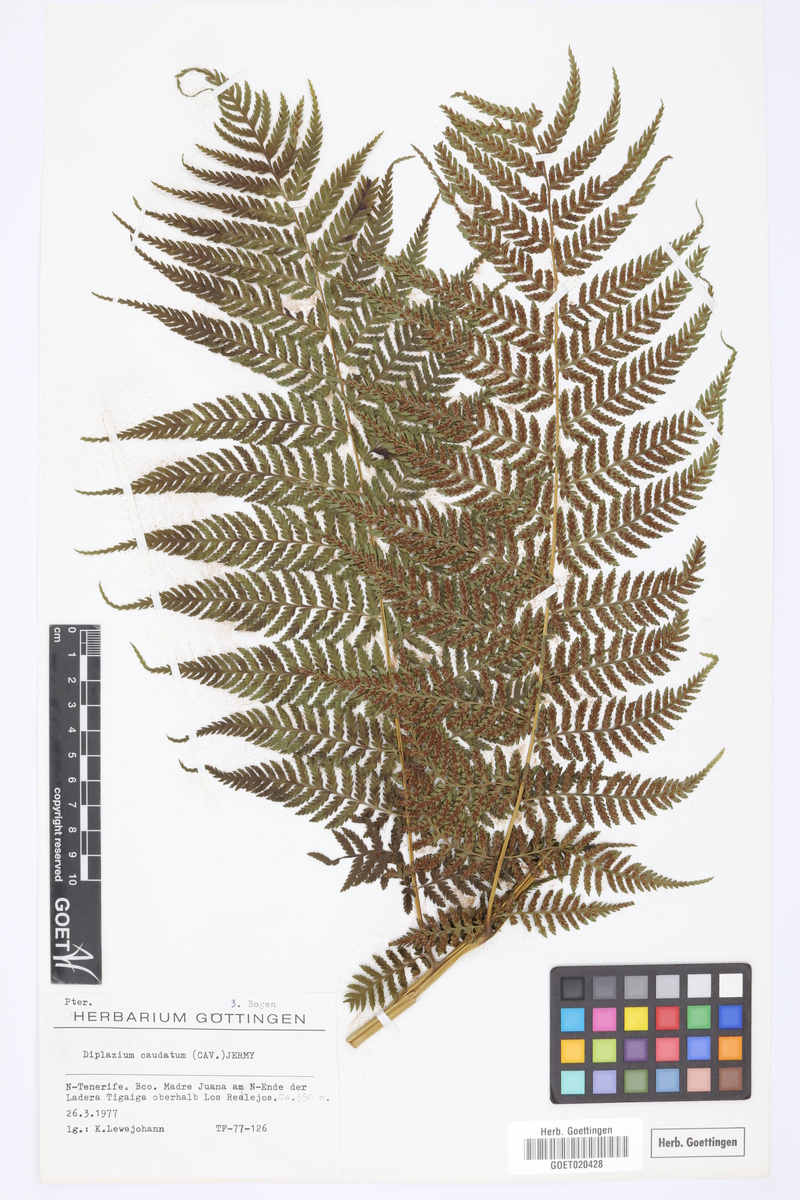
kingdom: Plantae
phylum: Tracheophyta
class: Polypodiopsida
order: Polypodiales
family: Athyriaceae
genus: Diplazium
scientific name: Diplazium caudatum
